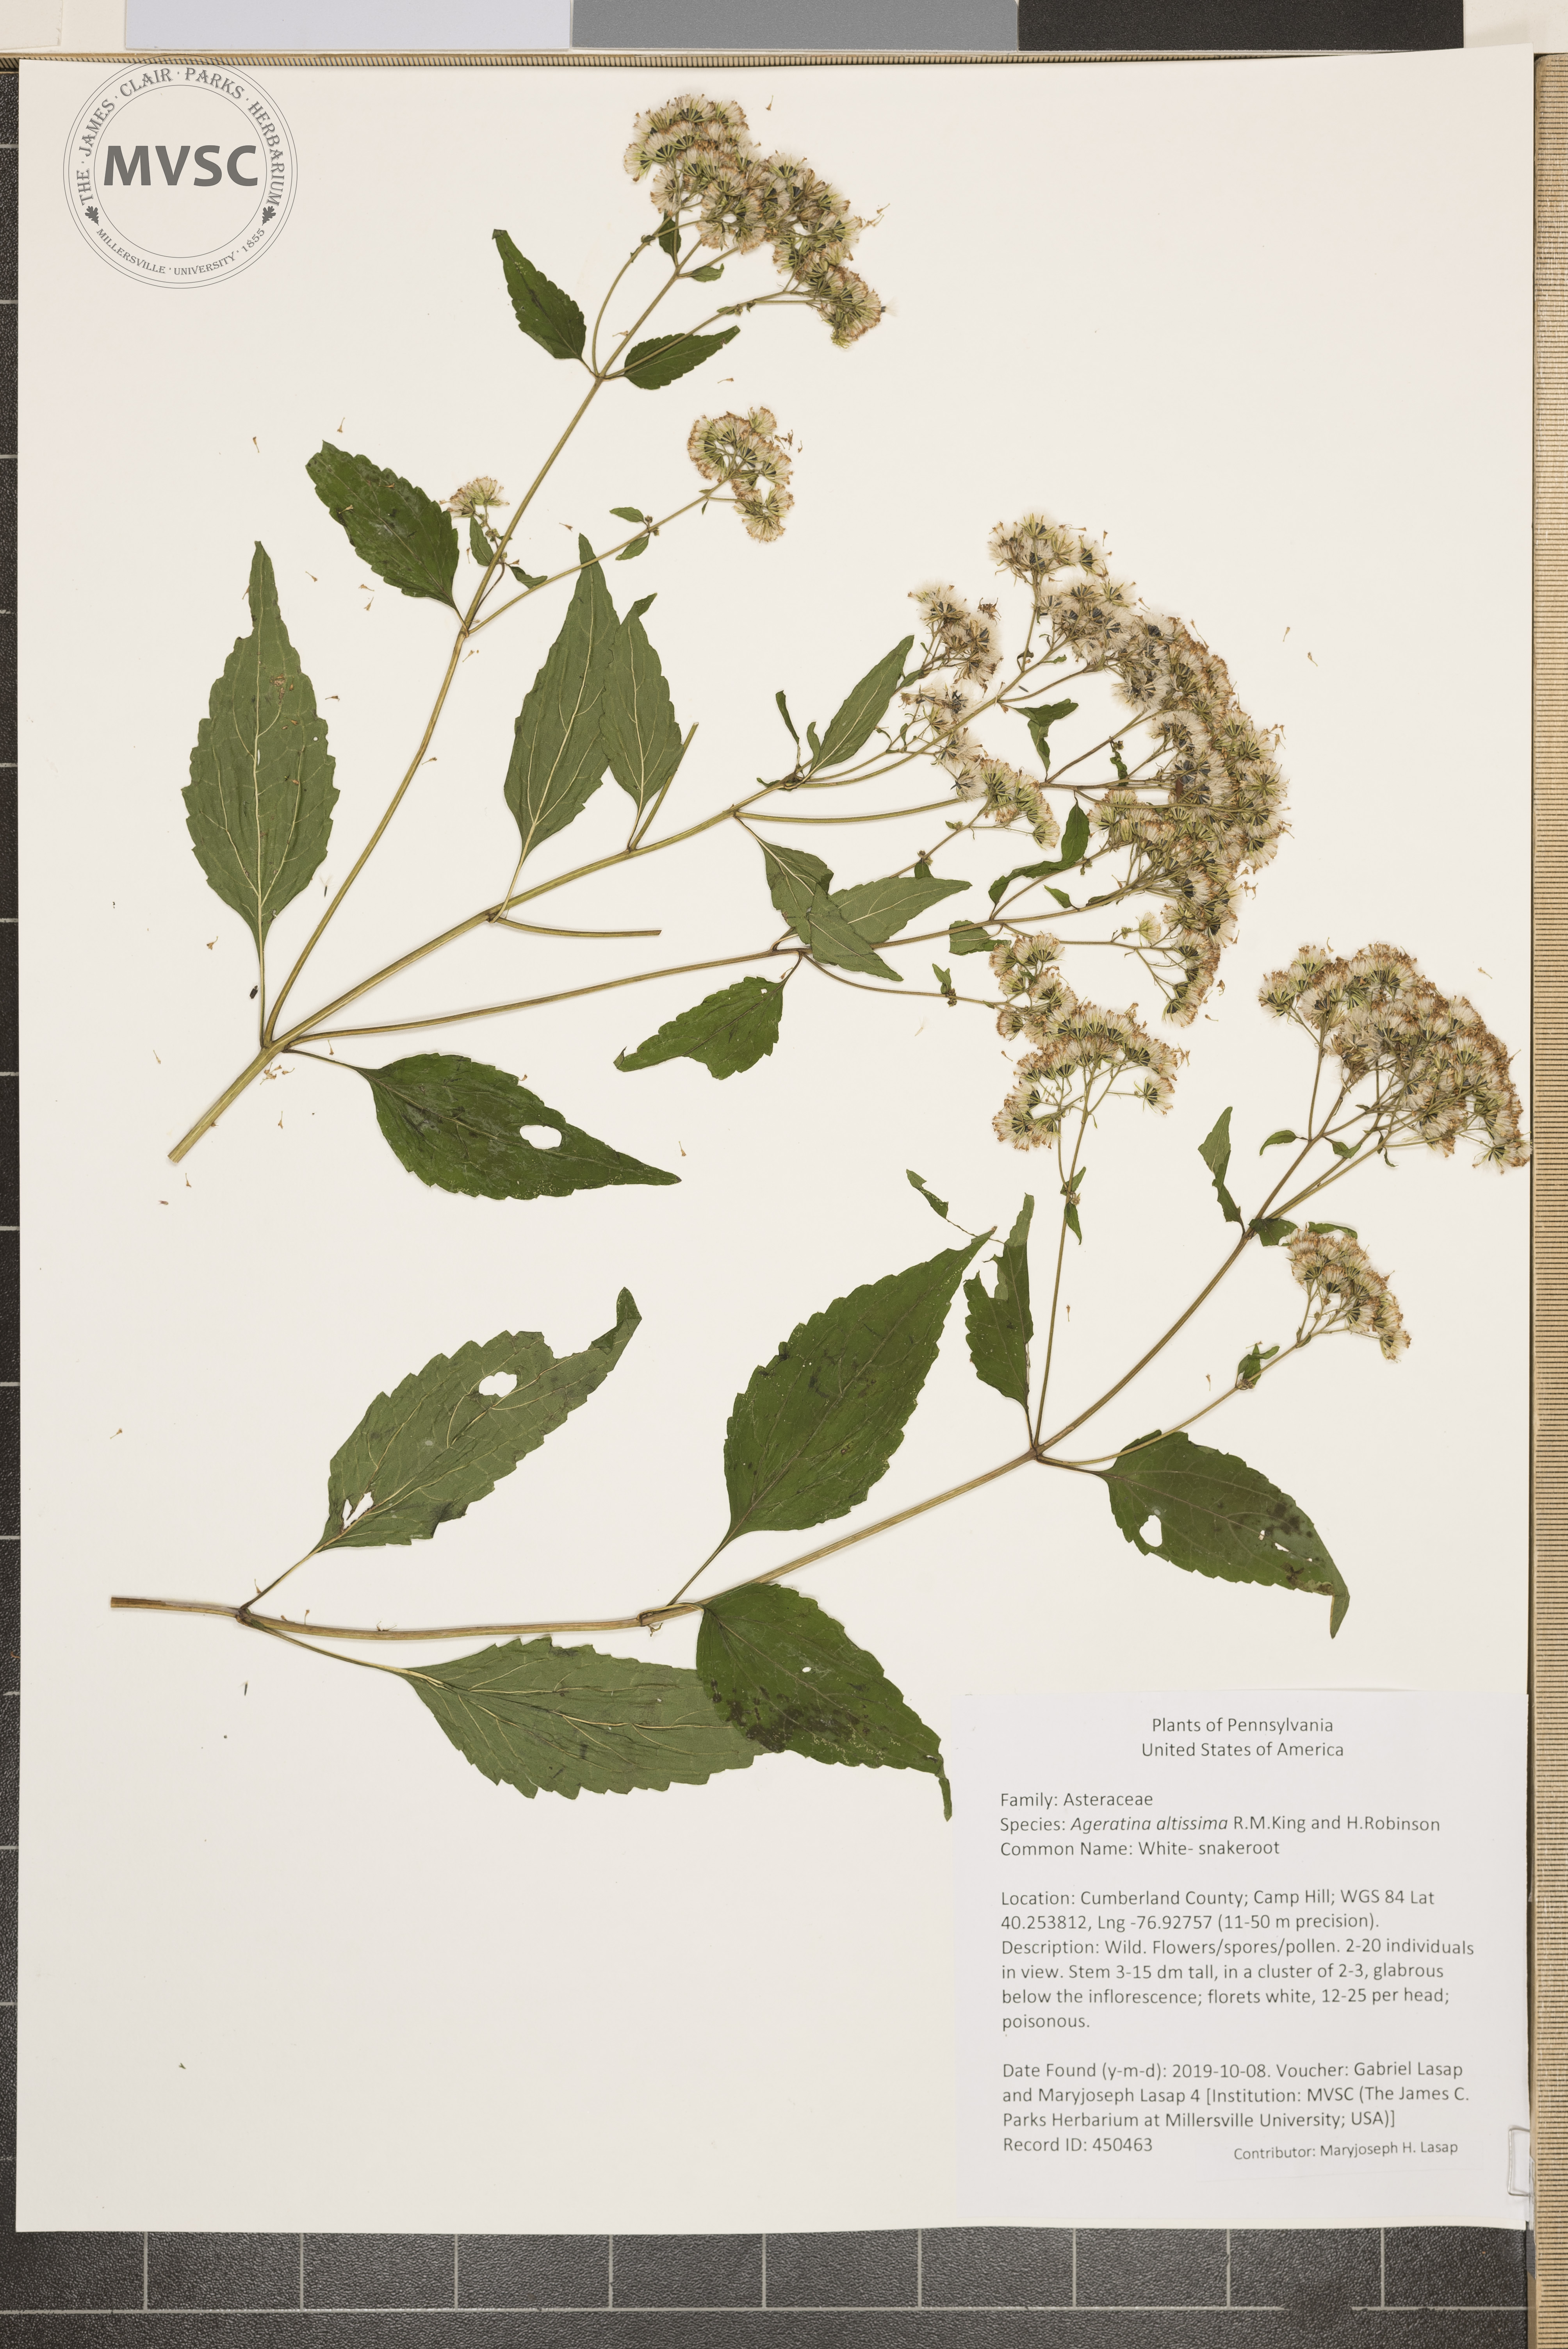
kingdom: Plantae
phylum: Tracheophyta
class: Magnoliopsida
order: Asterales
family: Asteraceae
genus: Ageratina
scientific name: Ageratina altissima
